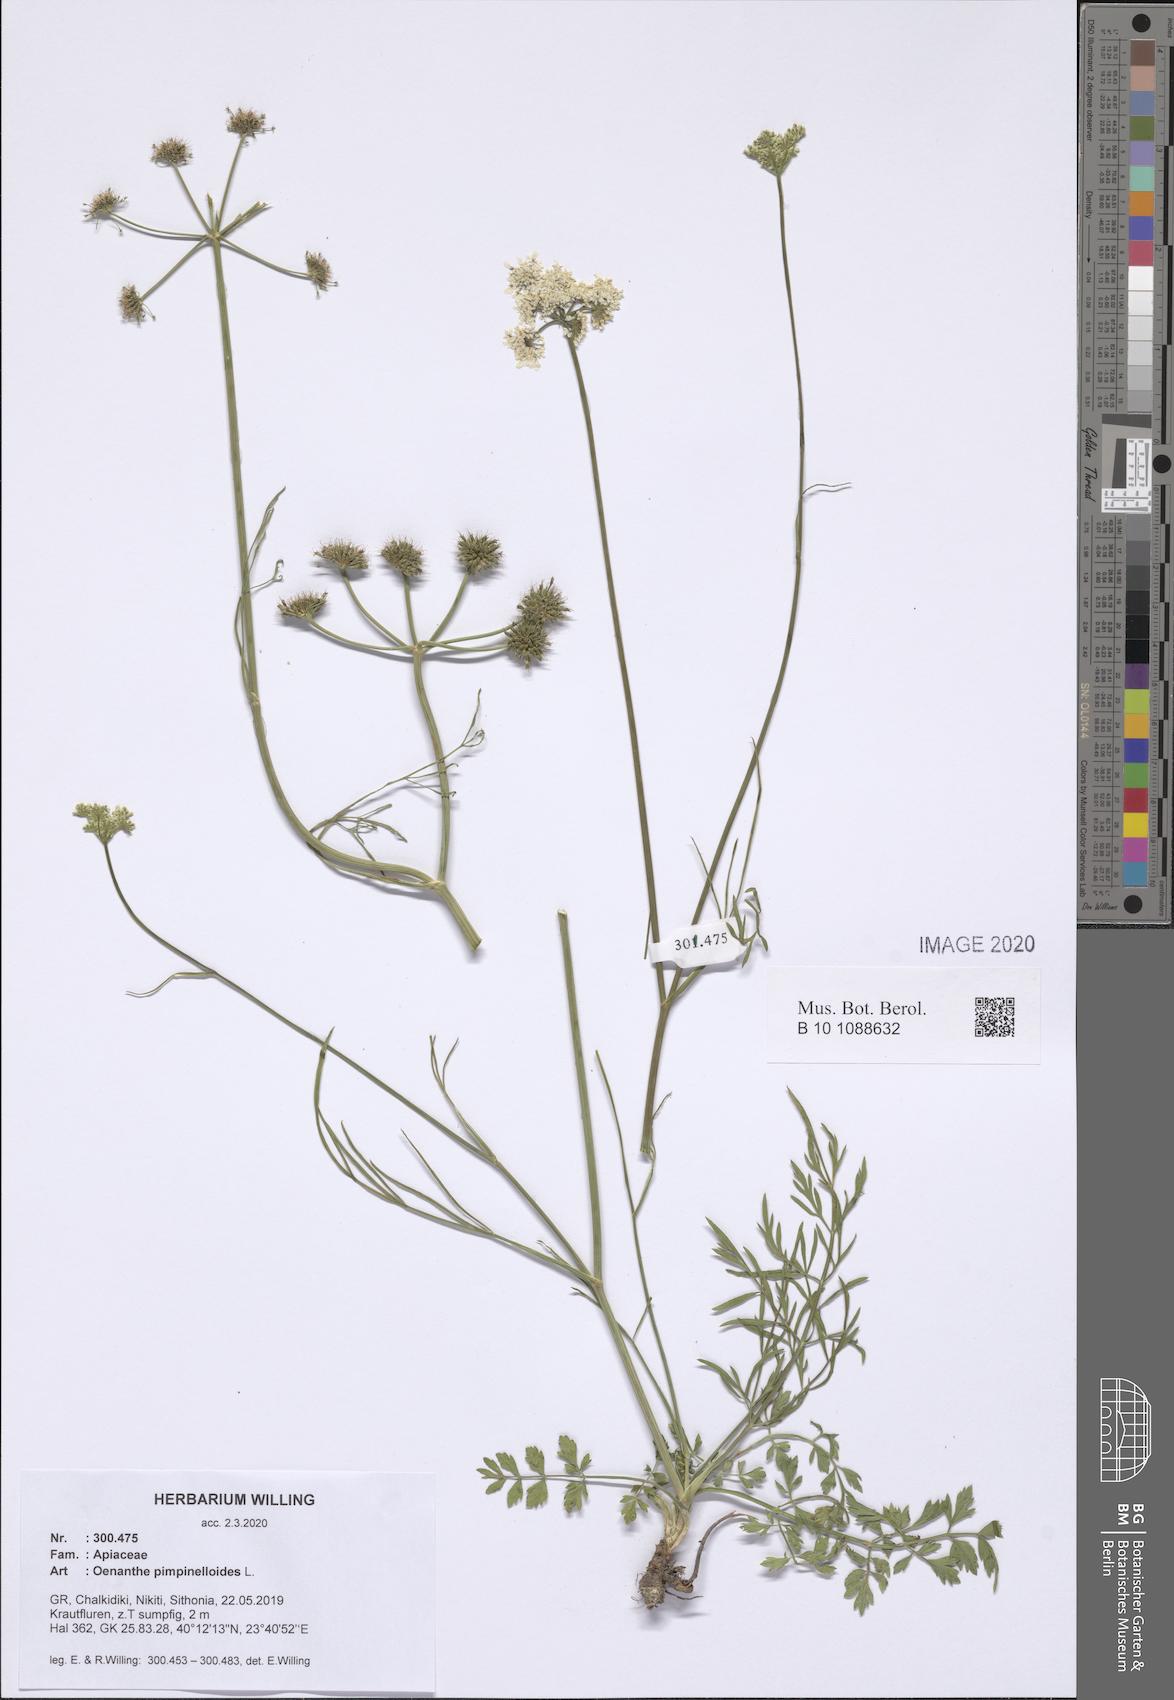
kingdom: Plantae
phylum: Tracheophyta
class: Magnoliopsida
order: Apiales
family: Apiaceae
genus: Oenanthe
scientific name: Oenanthe pimpinelloides
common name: Corky-fruited water-dropwort
